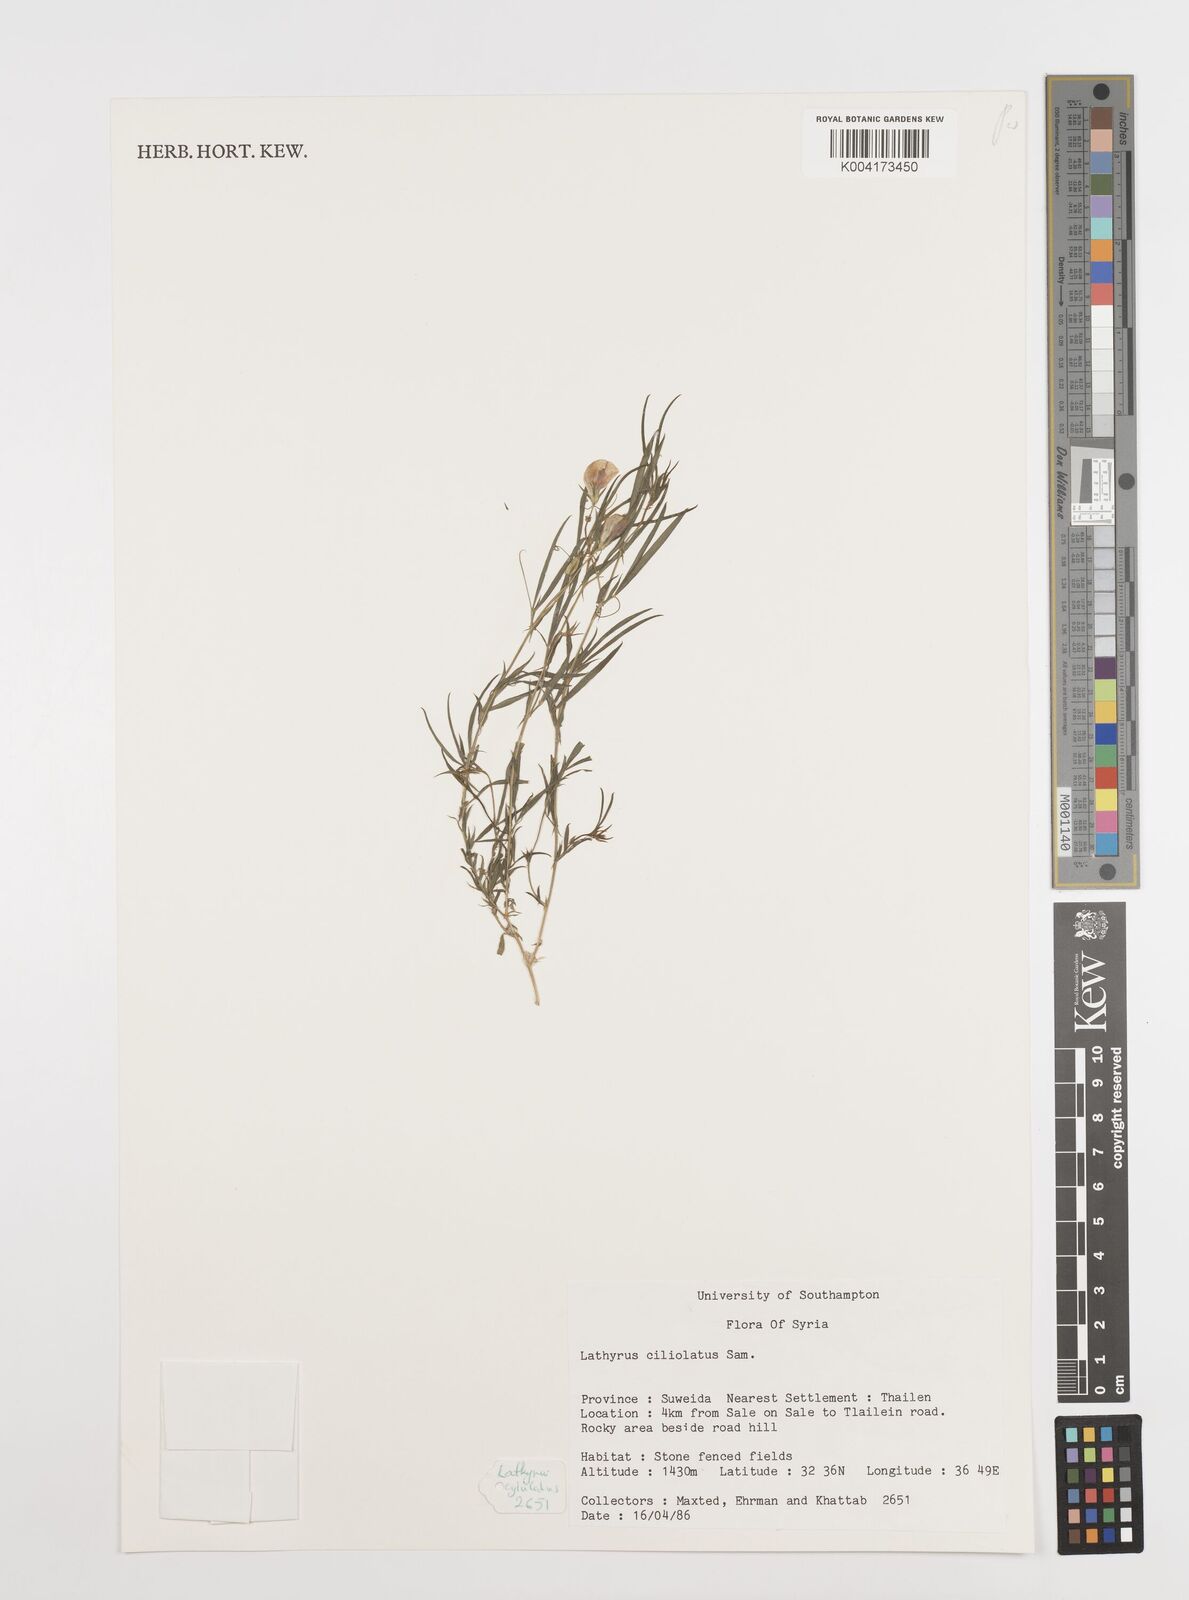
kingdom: Plantae
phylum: Tracheophyta
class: Magnoliopsida
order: Fabales
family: Fabaceae
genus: Lathyrus
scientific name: Lathyrus ciliolatus
